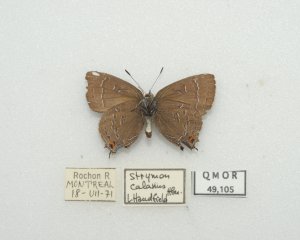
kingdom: Animalia
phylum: Arthropoda
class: Insecta
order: Lepidoptera
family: Lycaenidae
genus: Satyrium
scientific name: Satyrium calanus
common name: Banded Hairstreak
